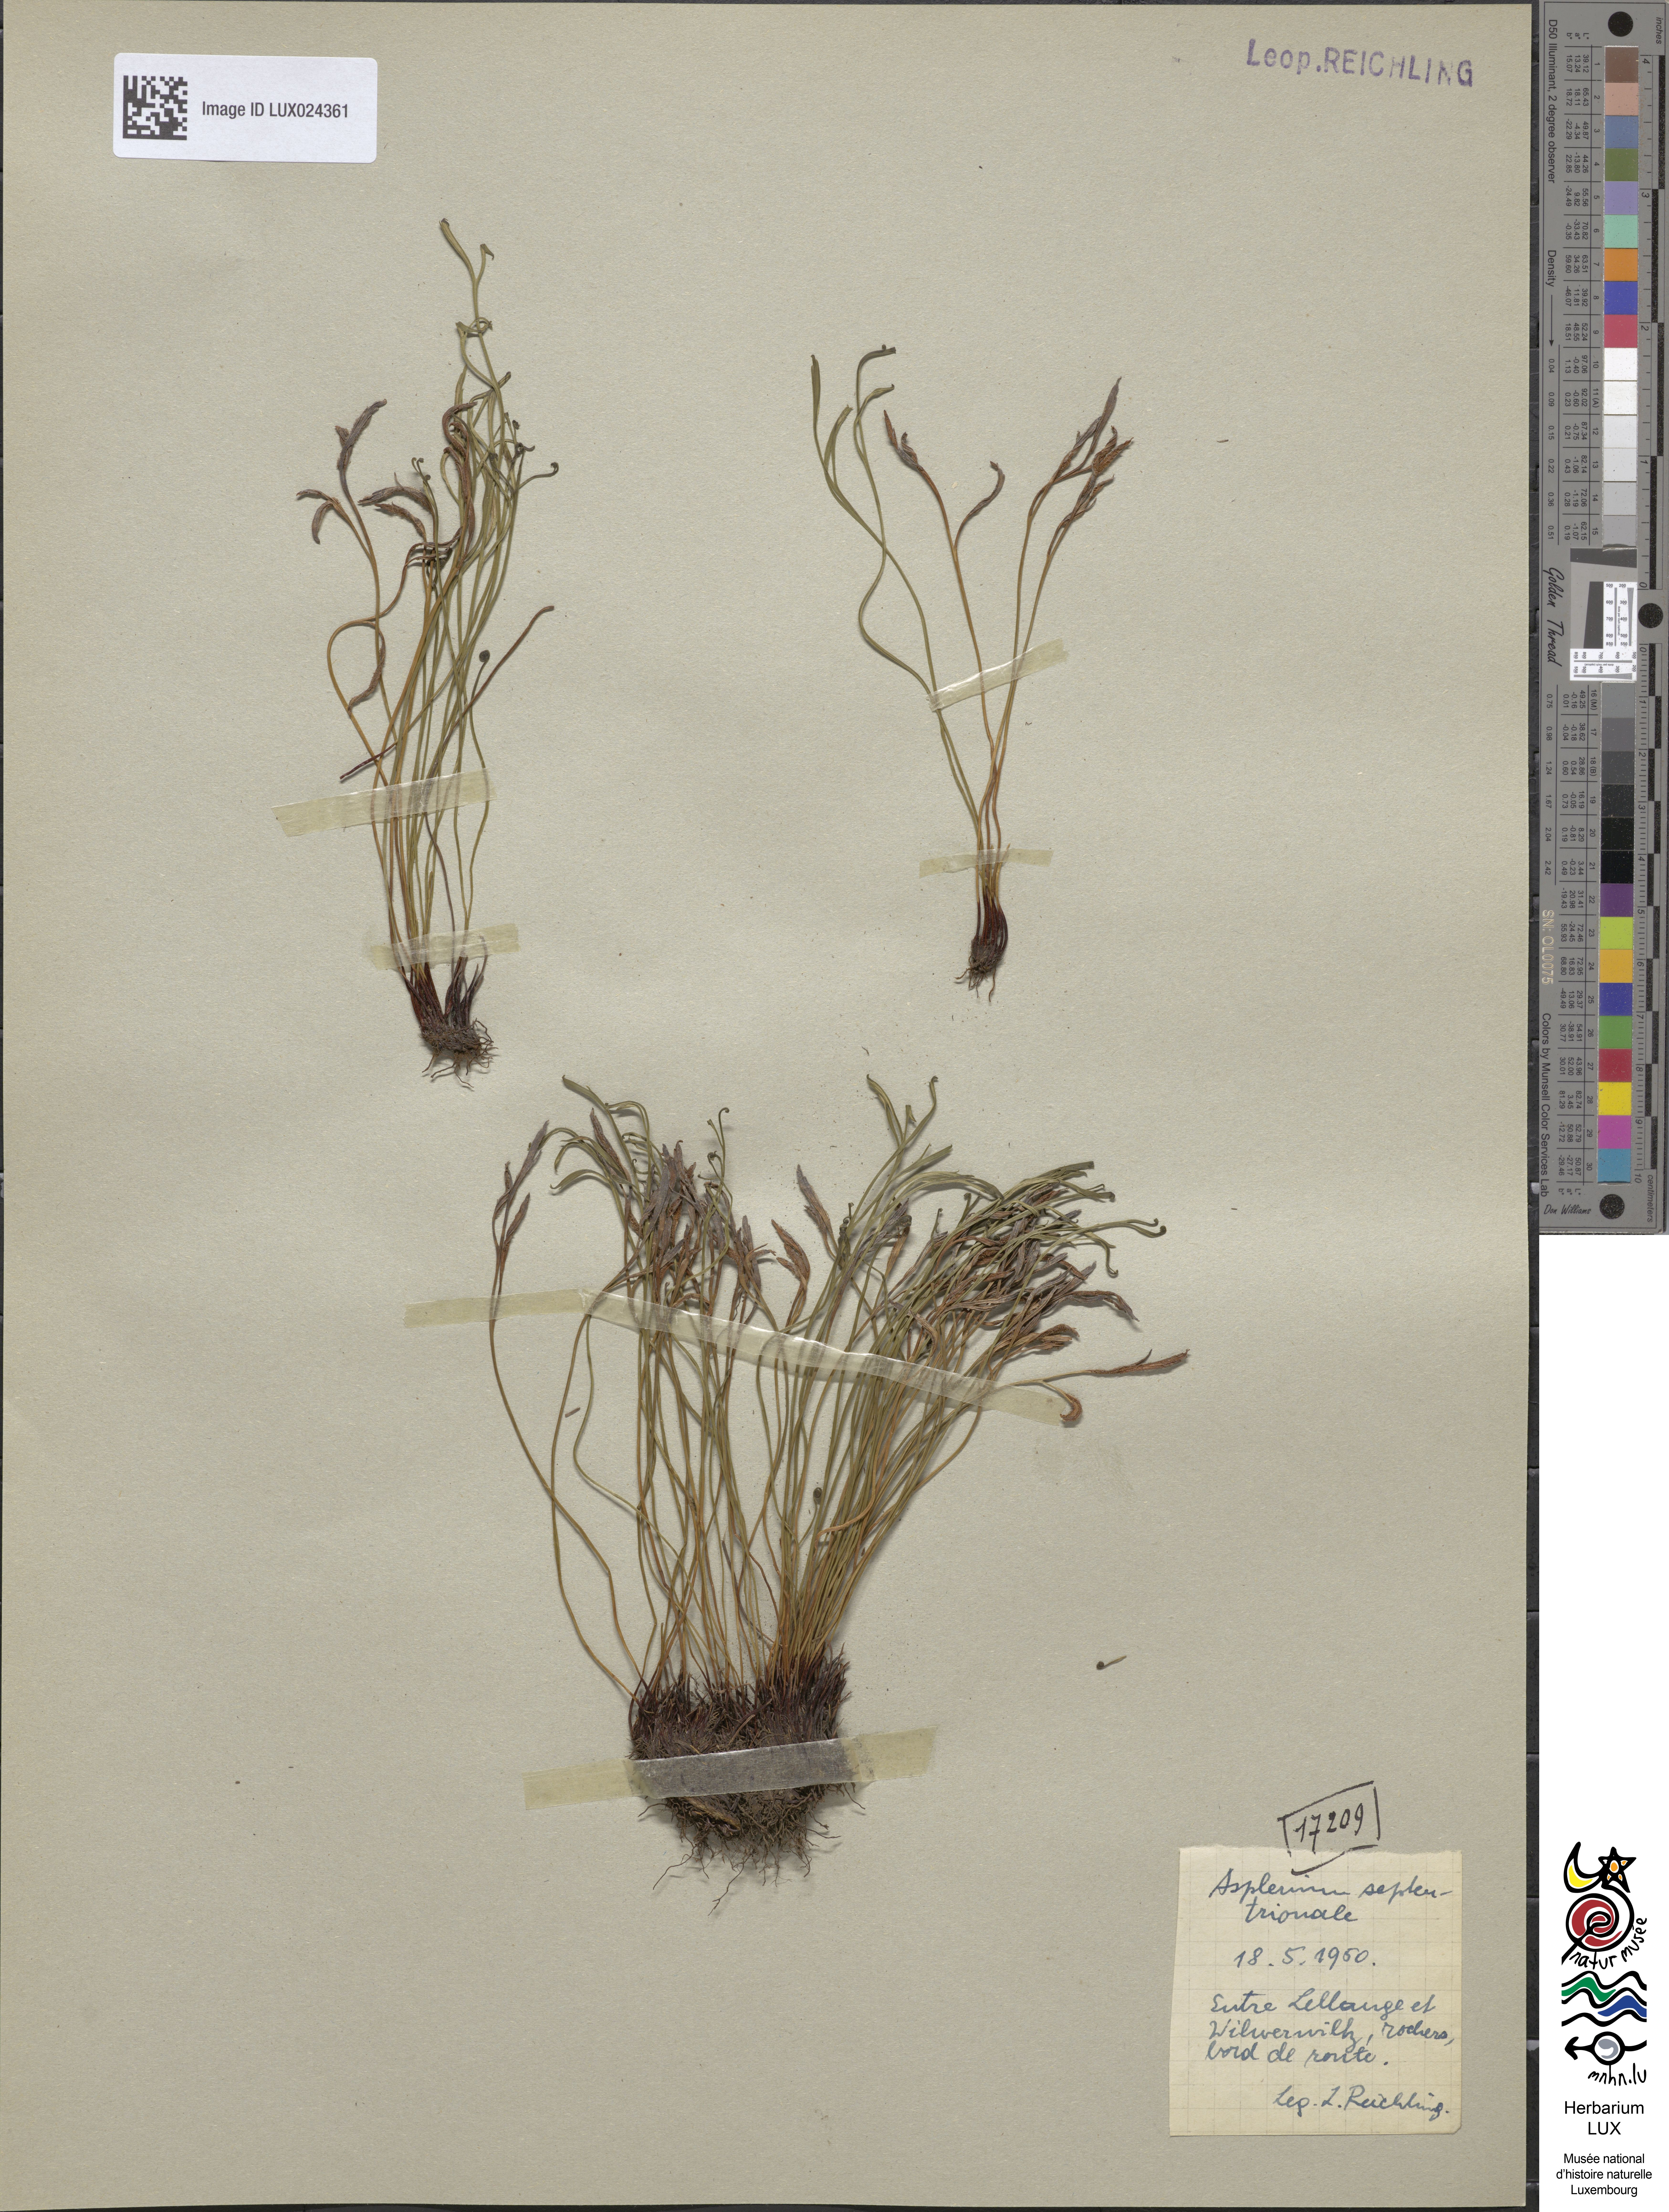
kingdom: Plantae
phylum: Tracheophyta
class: Polypodiopsida
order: Polypodiales
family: Aspleniaceae
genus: Asplenium
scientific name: Asplenium septentrionale
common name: Forked spleenwort
